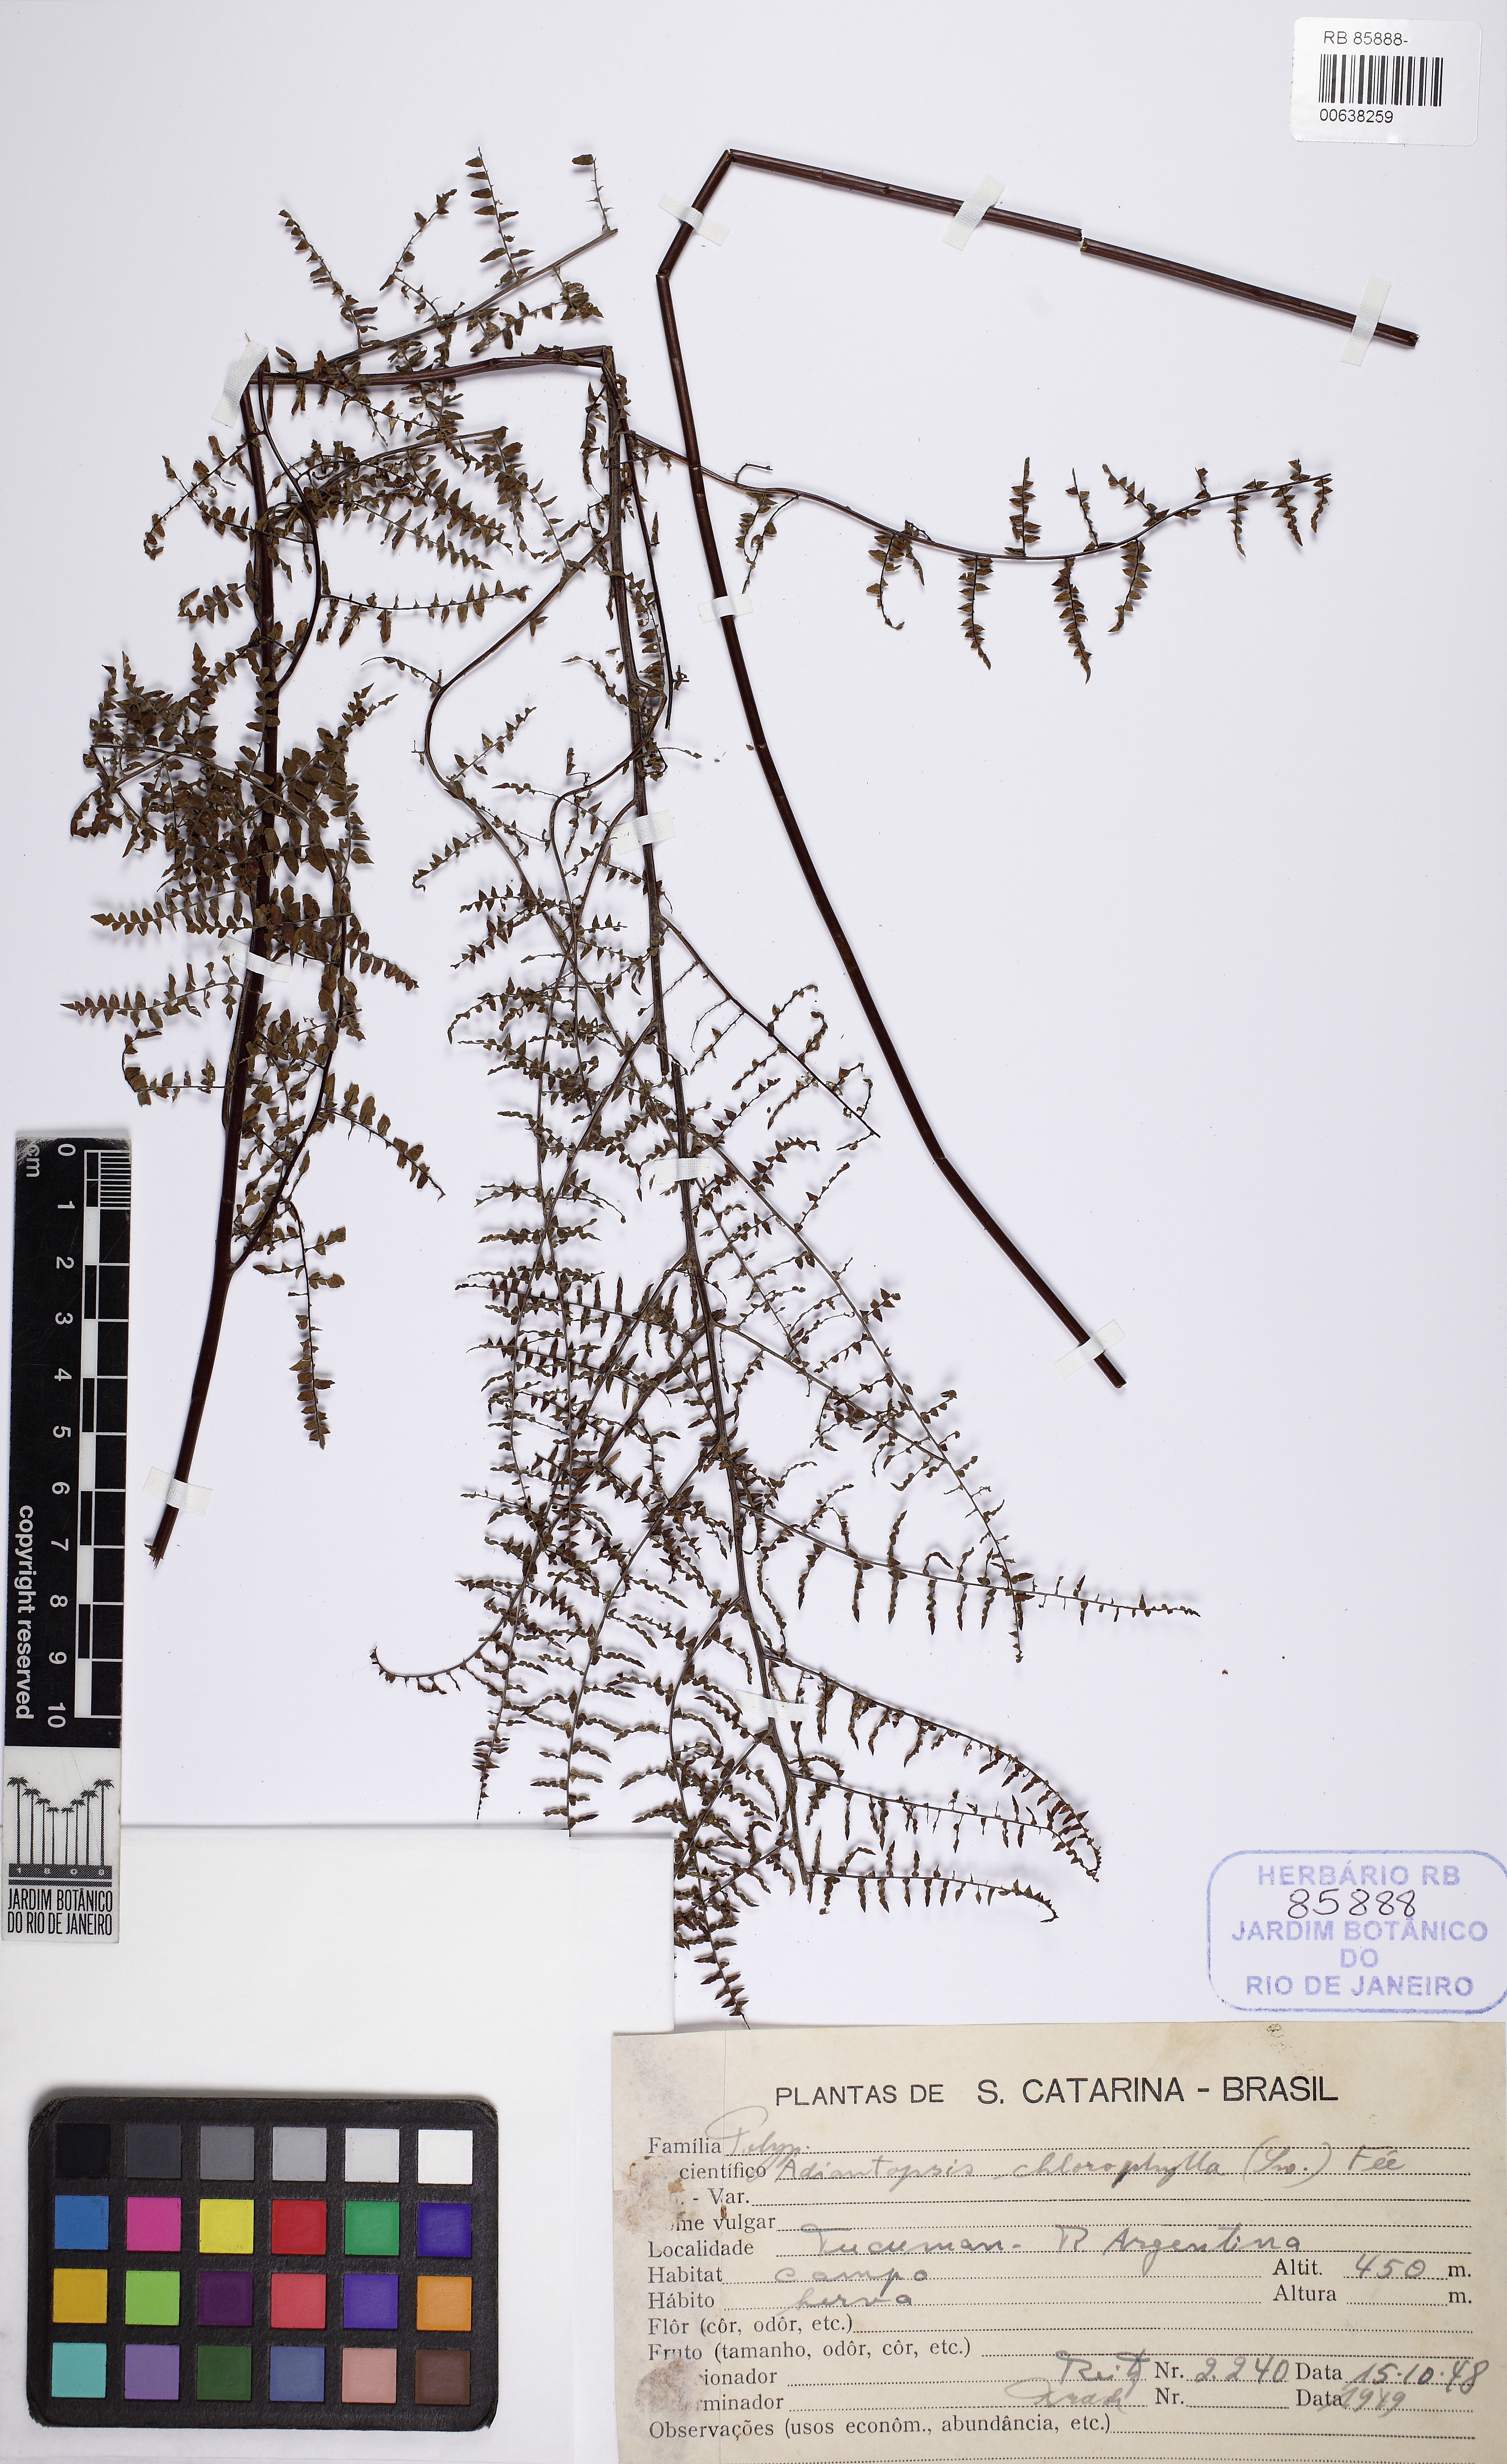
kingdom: Plantae
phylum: Tracheophyta
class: Polypodiopsida
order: Polypodiales
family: Pteridaceae
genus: Adiantopsis
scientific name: Adiantopsis chlorophylla
